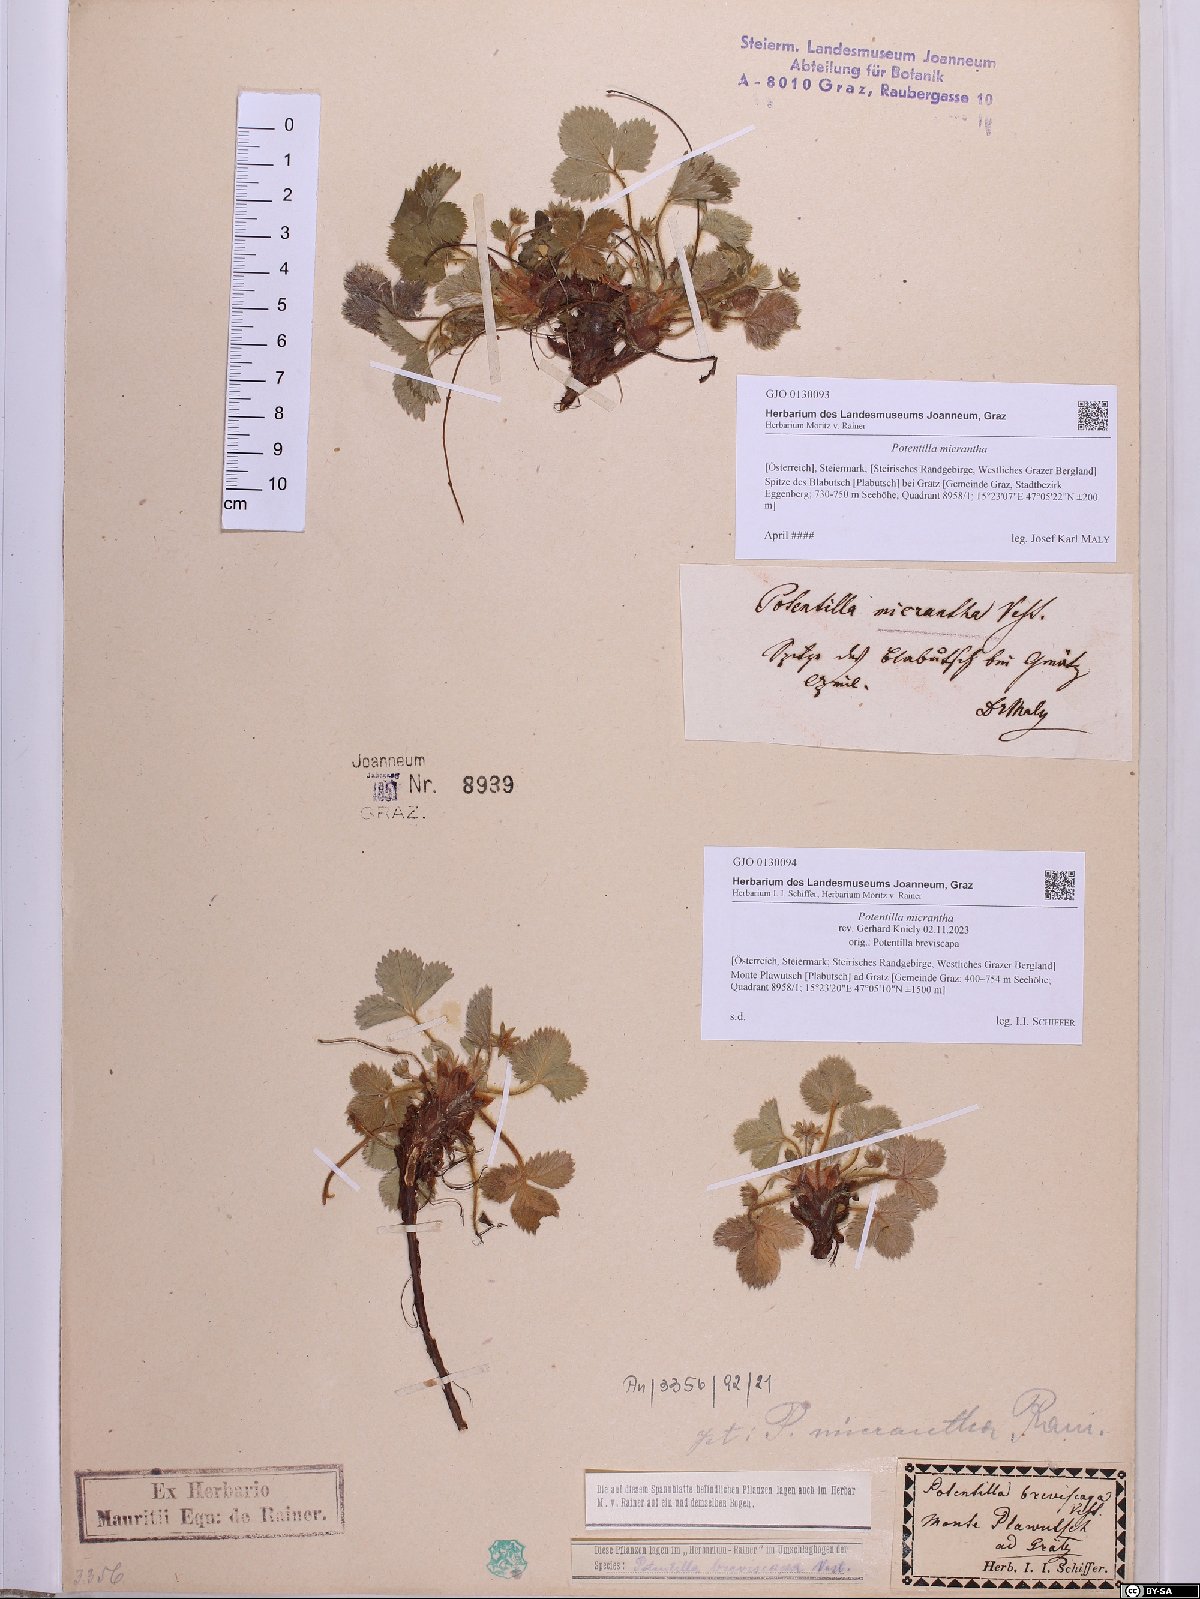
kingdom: Plantae
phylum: Tracheophyta
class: Magnoliopsida
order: Rosales
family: Rosaceae
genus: Potentilla
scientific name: Potentilla micrantha
